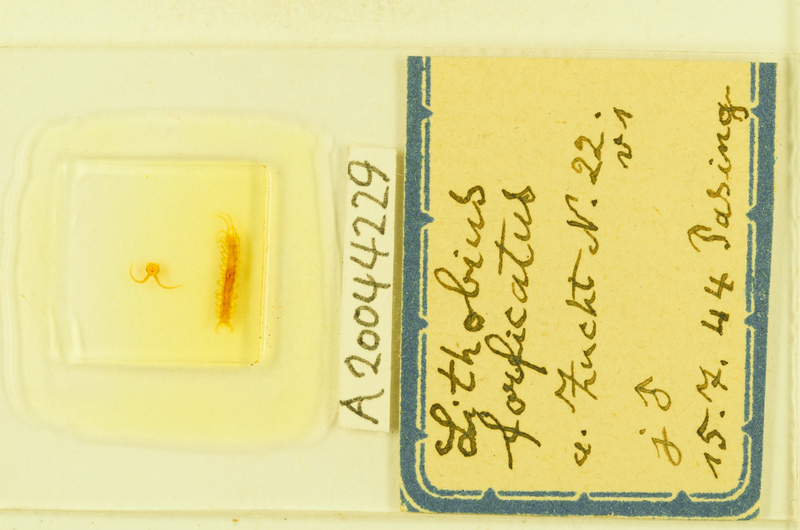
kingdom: Animalia
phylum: Arthropoda
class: Chilopoda
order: Lithobiomorpha
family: Lithobiidae
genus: Lithobius
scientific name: Lithobius forficatus
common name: Centipede
